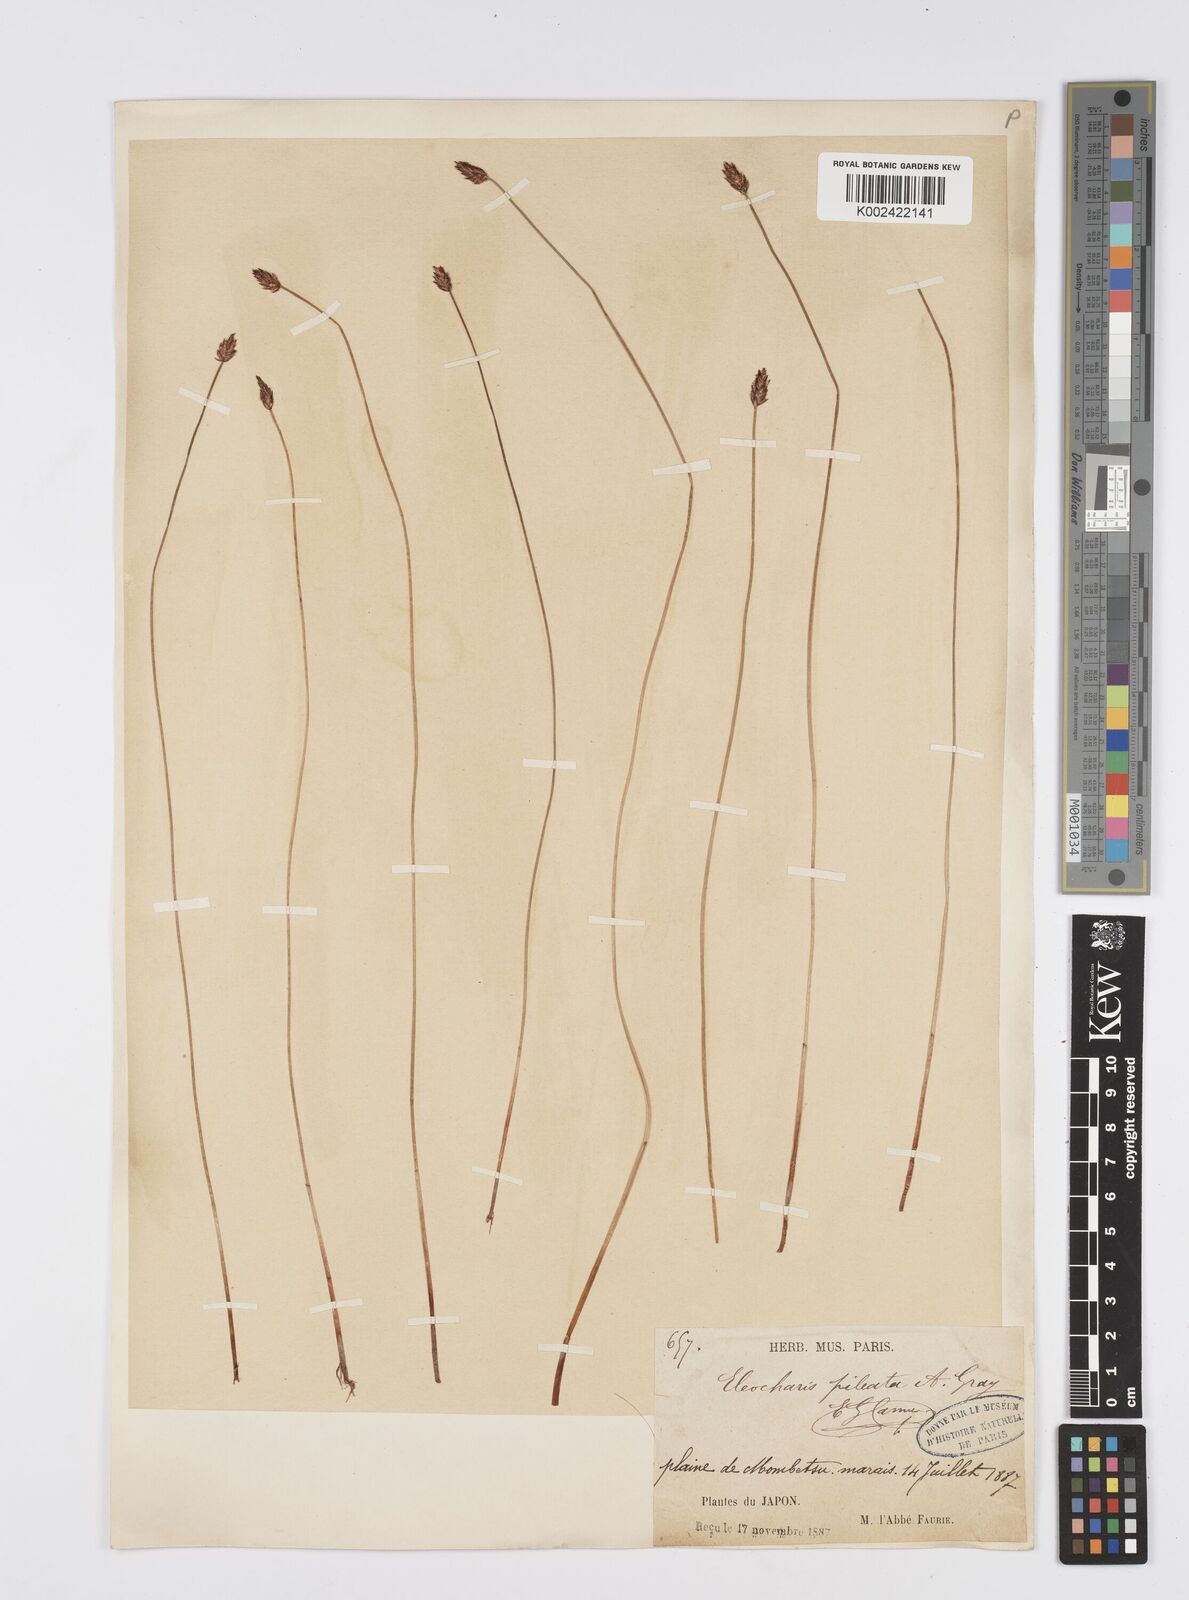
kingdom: Plantae
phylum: Tracheophyta
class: Liliopsida
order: Poales
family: Cyperaceae
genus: Eleocharis
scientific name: Eleocharis kamtschatica
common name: Kamchatka spikerush
